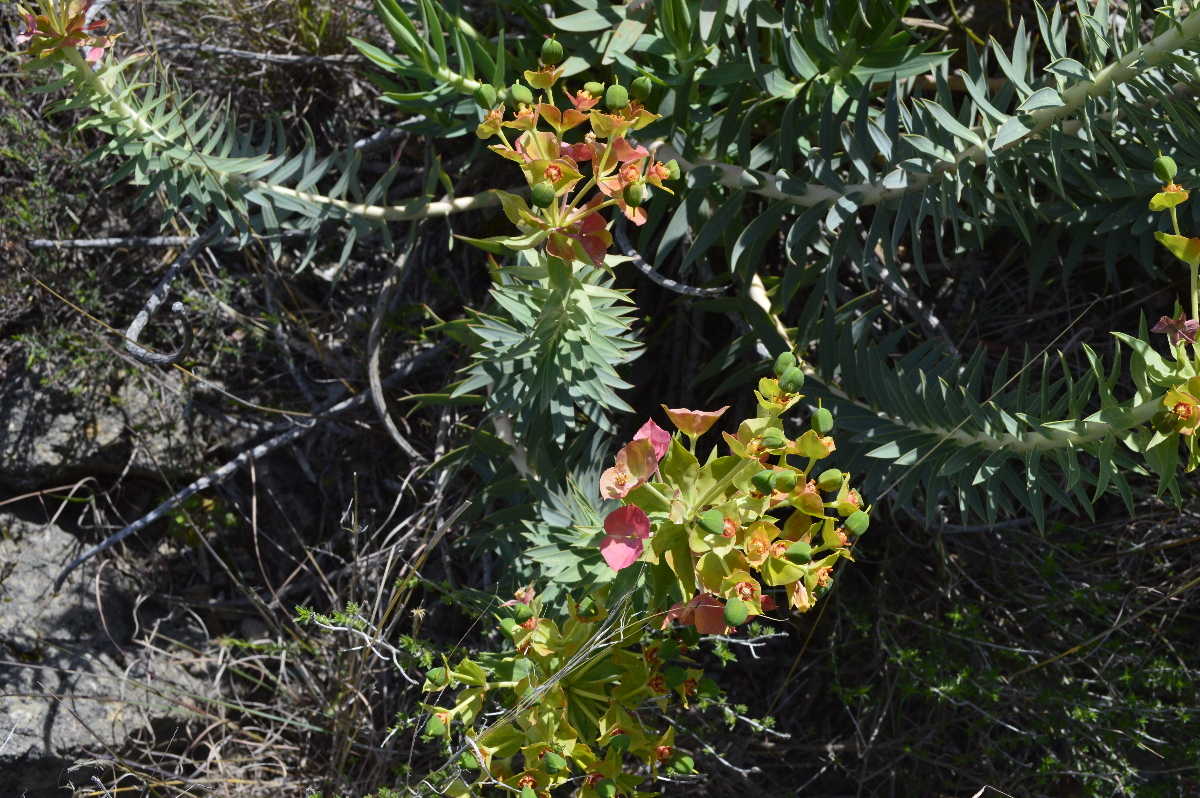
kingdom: Plantae
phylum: Tracheophyta
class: Magnoliopsida
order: Malpighiales
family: Euphorbiaceae
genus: Euphorbia
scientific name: Euphorbia rigida
